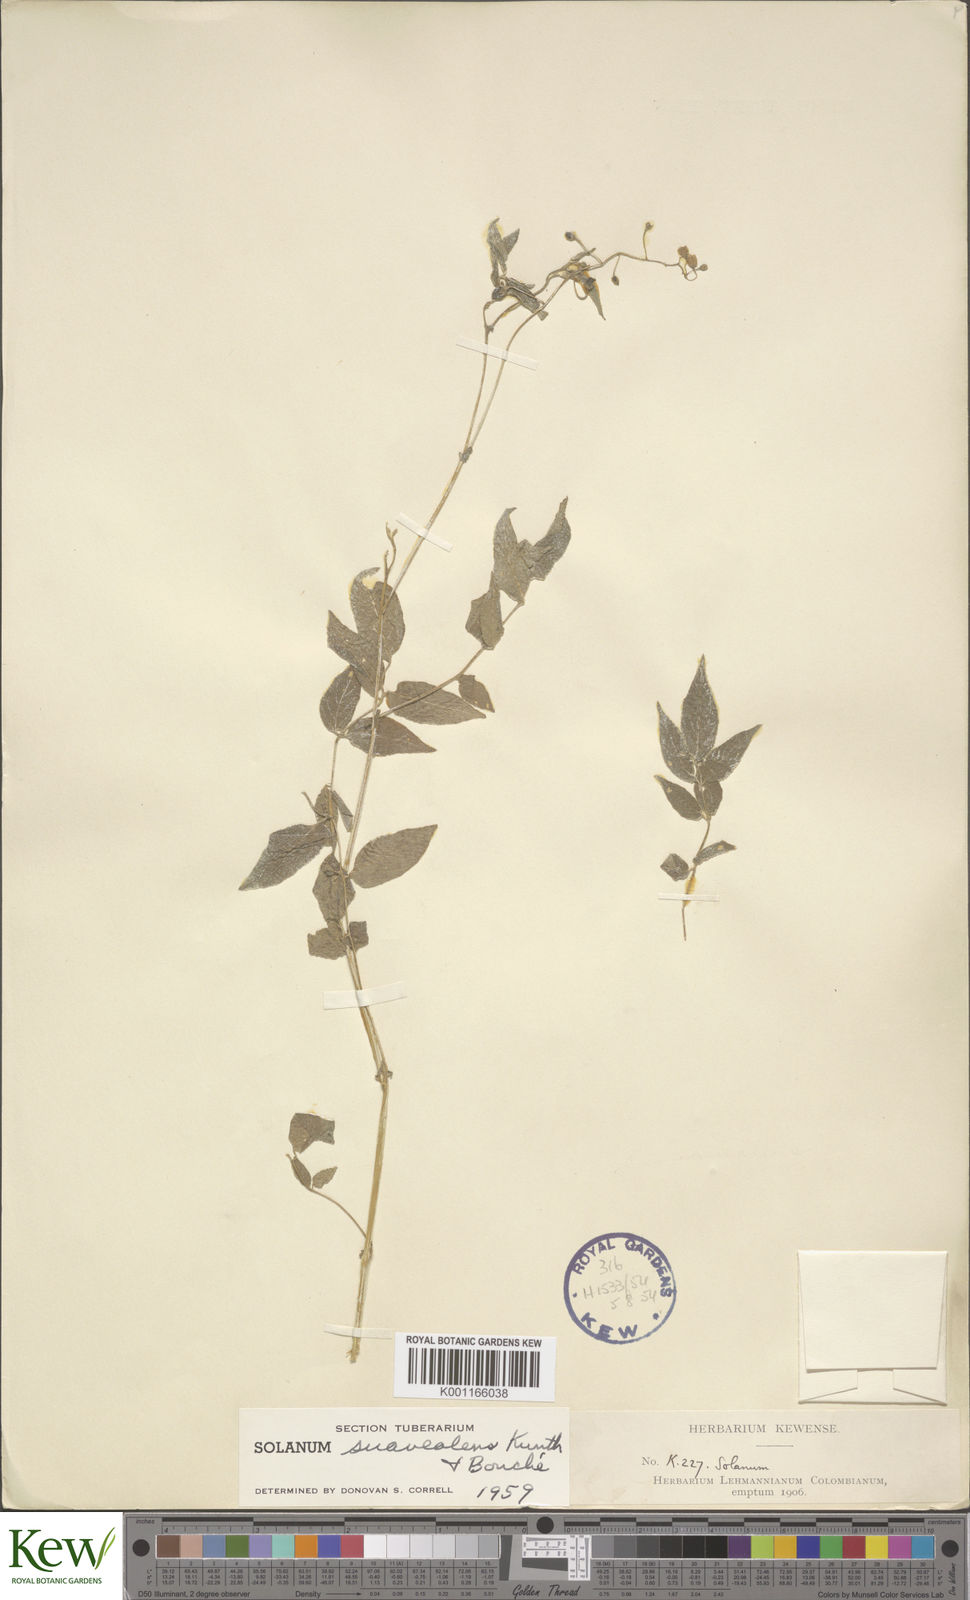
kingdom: Plantae
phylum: Tracheophyta
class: Magnoliopsida
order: Solanales
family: Solanaceae
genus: Solanum
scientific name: Solanum suaveolens
